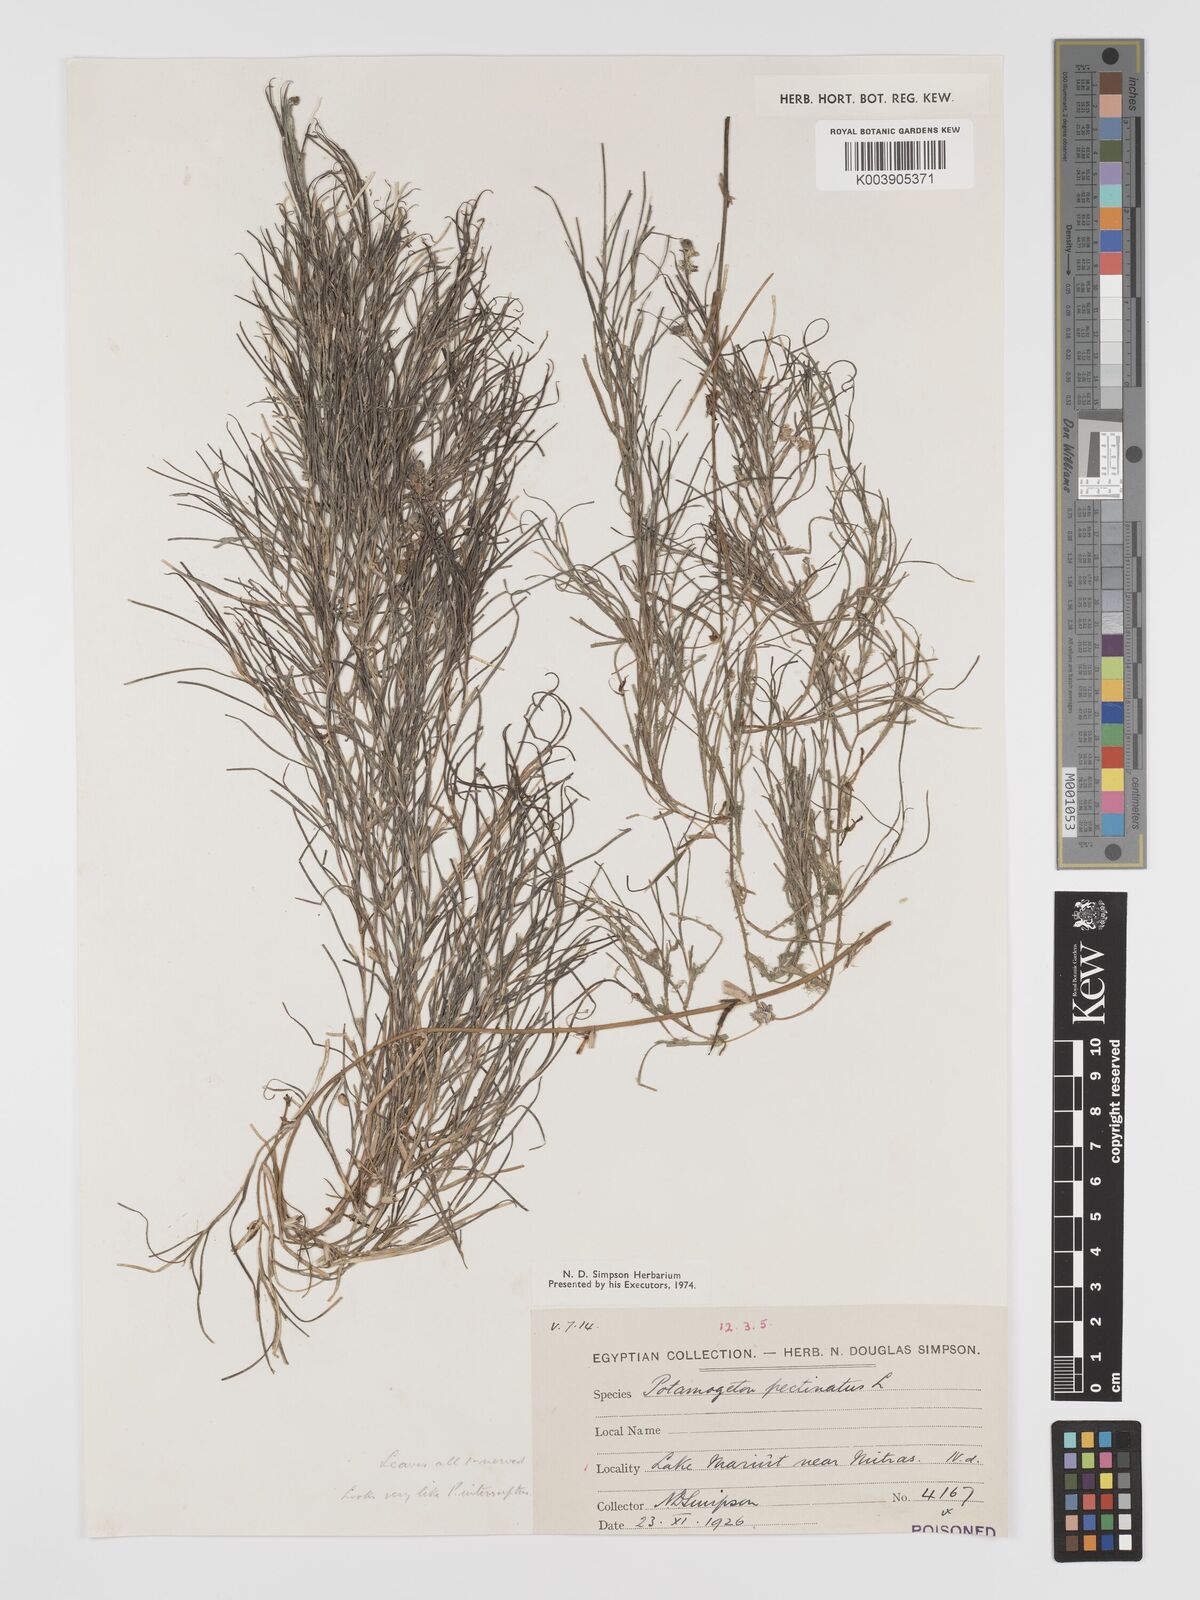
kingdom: Plantae
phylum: Tracheophyta
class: Liliopsida
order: Alismatales
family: Potamogetonaceae
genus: Stuckenia
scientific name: Stuckenia pectinata
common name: Sago pondweed
